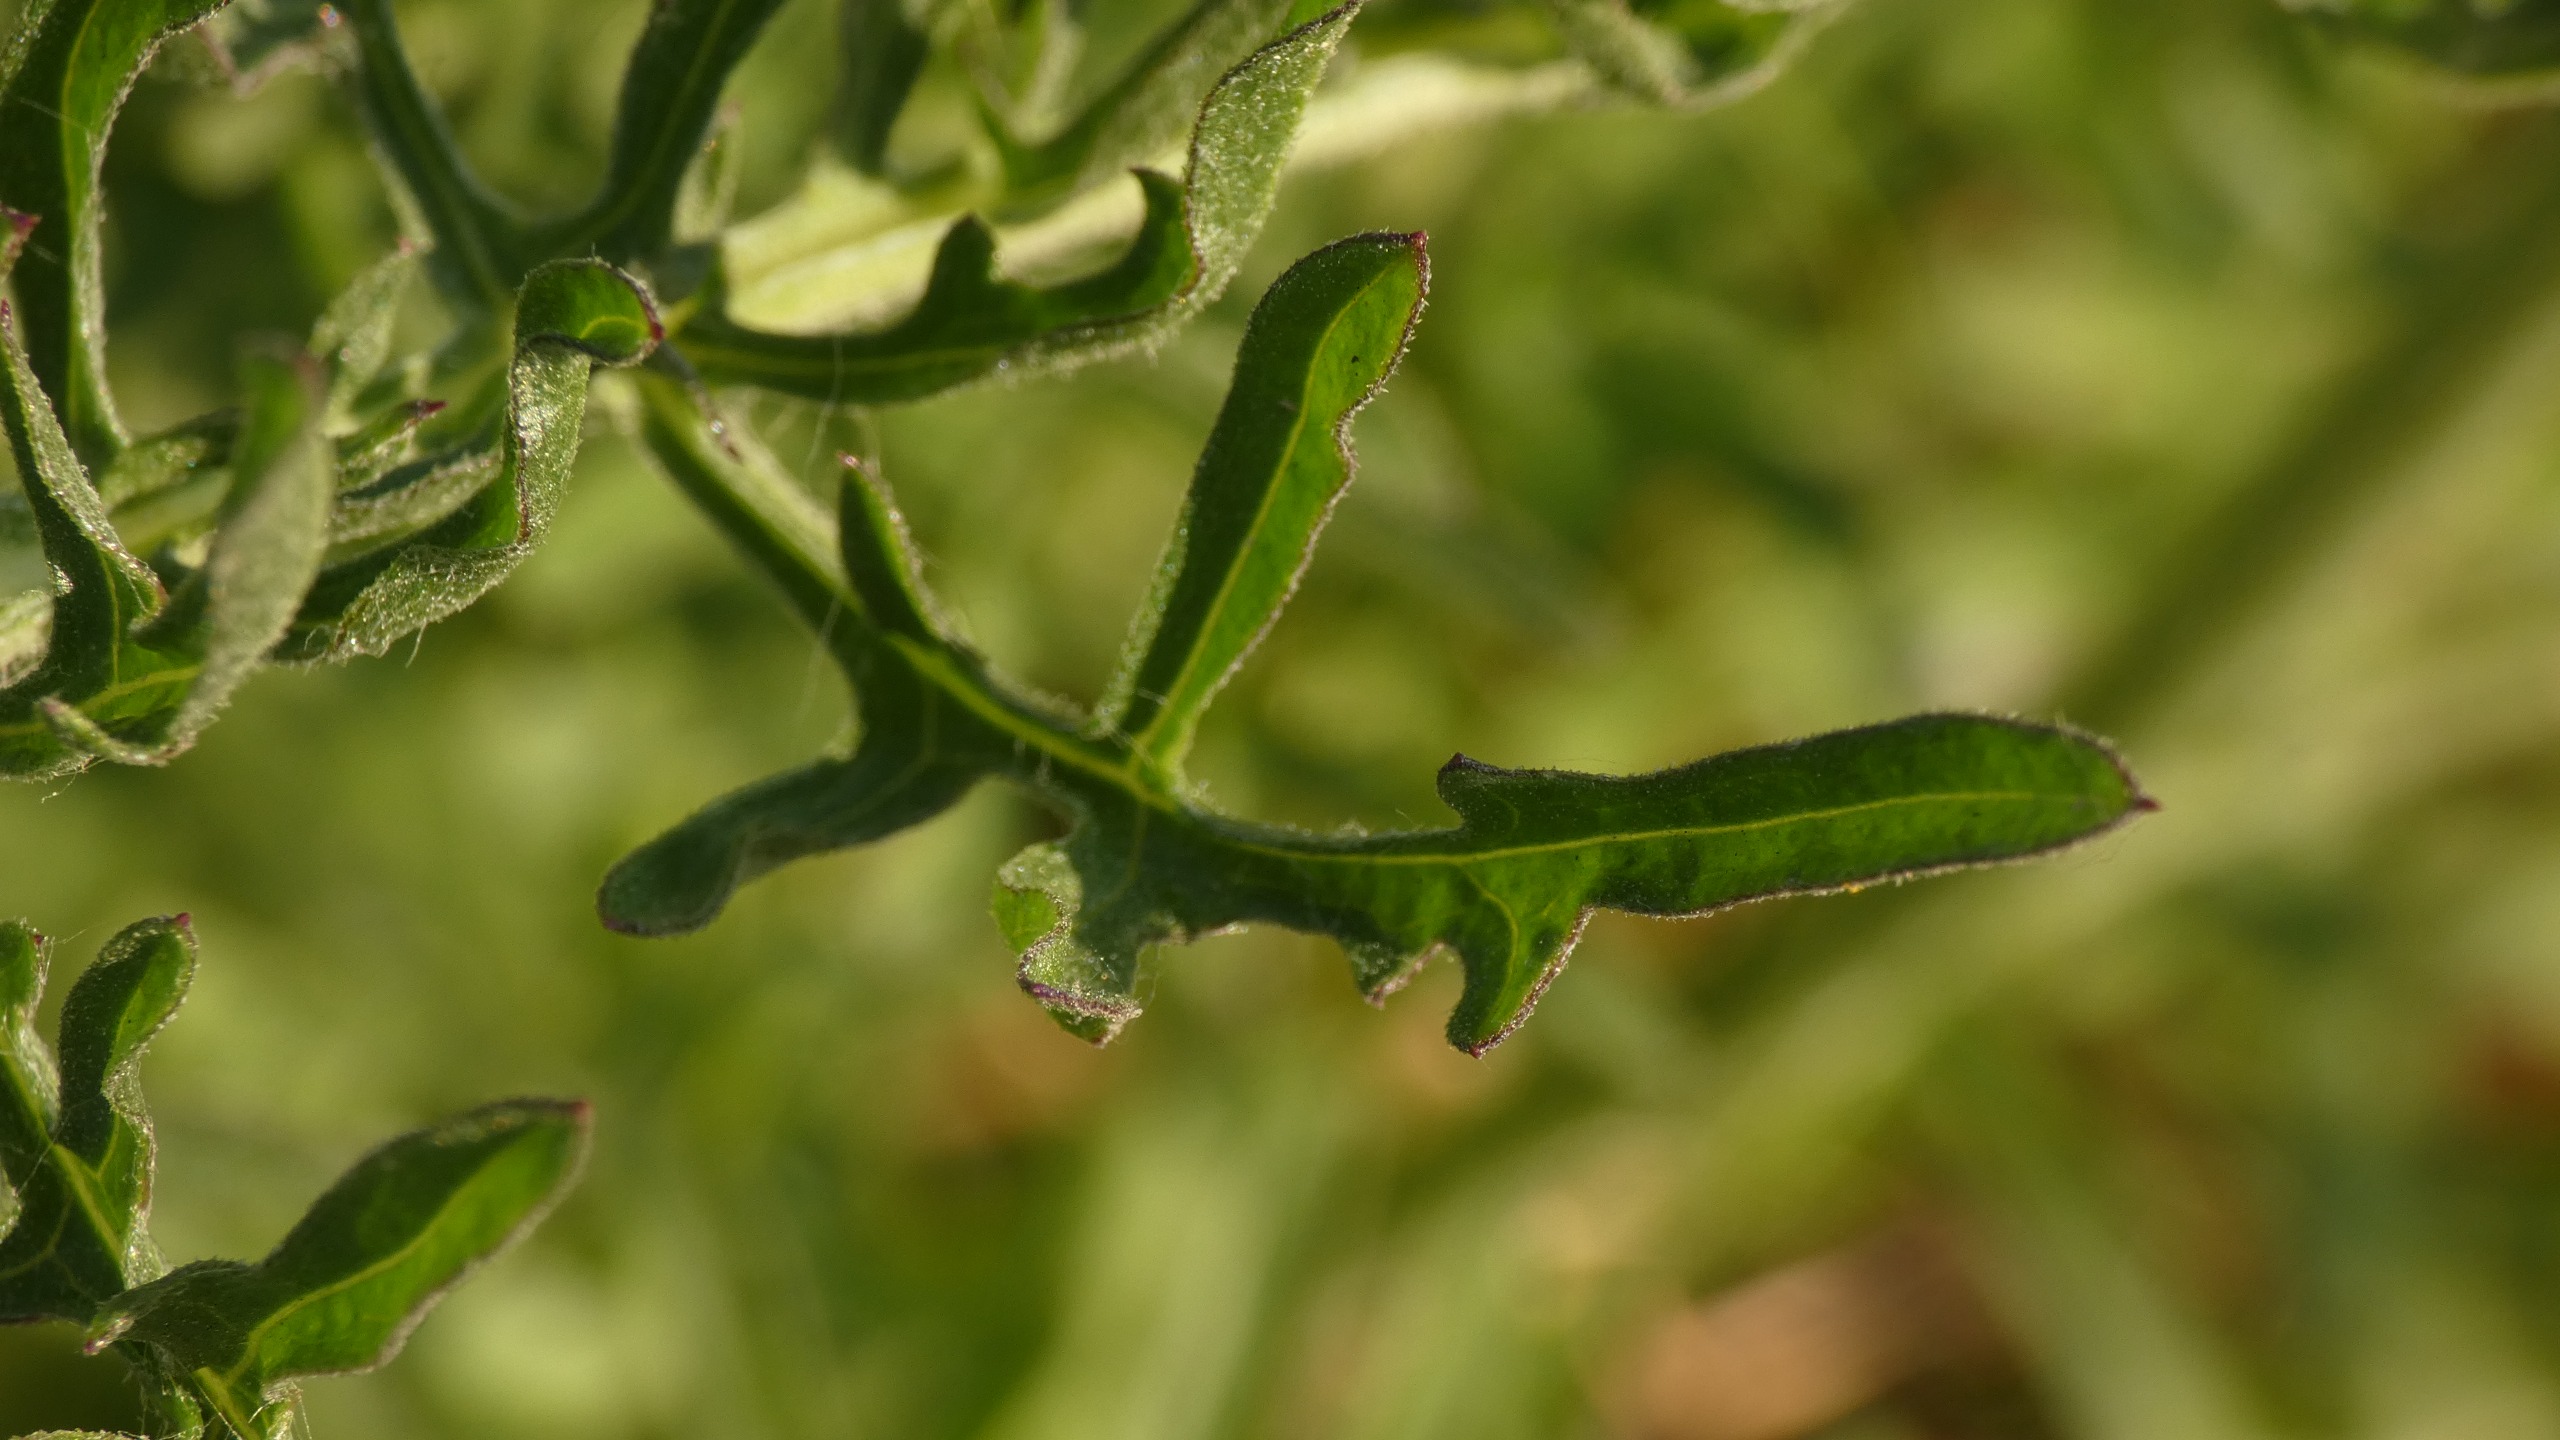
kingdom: Plantae
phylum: Tracheophyta
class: Magnoliopsida
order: Asterales
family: Asteraceae
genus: Centaurea
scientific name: Centaurea scabiosa
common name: Stor knopurt
